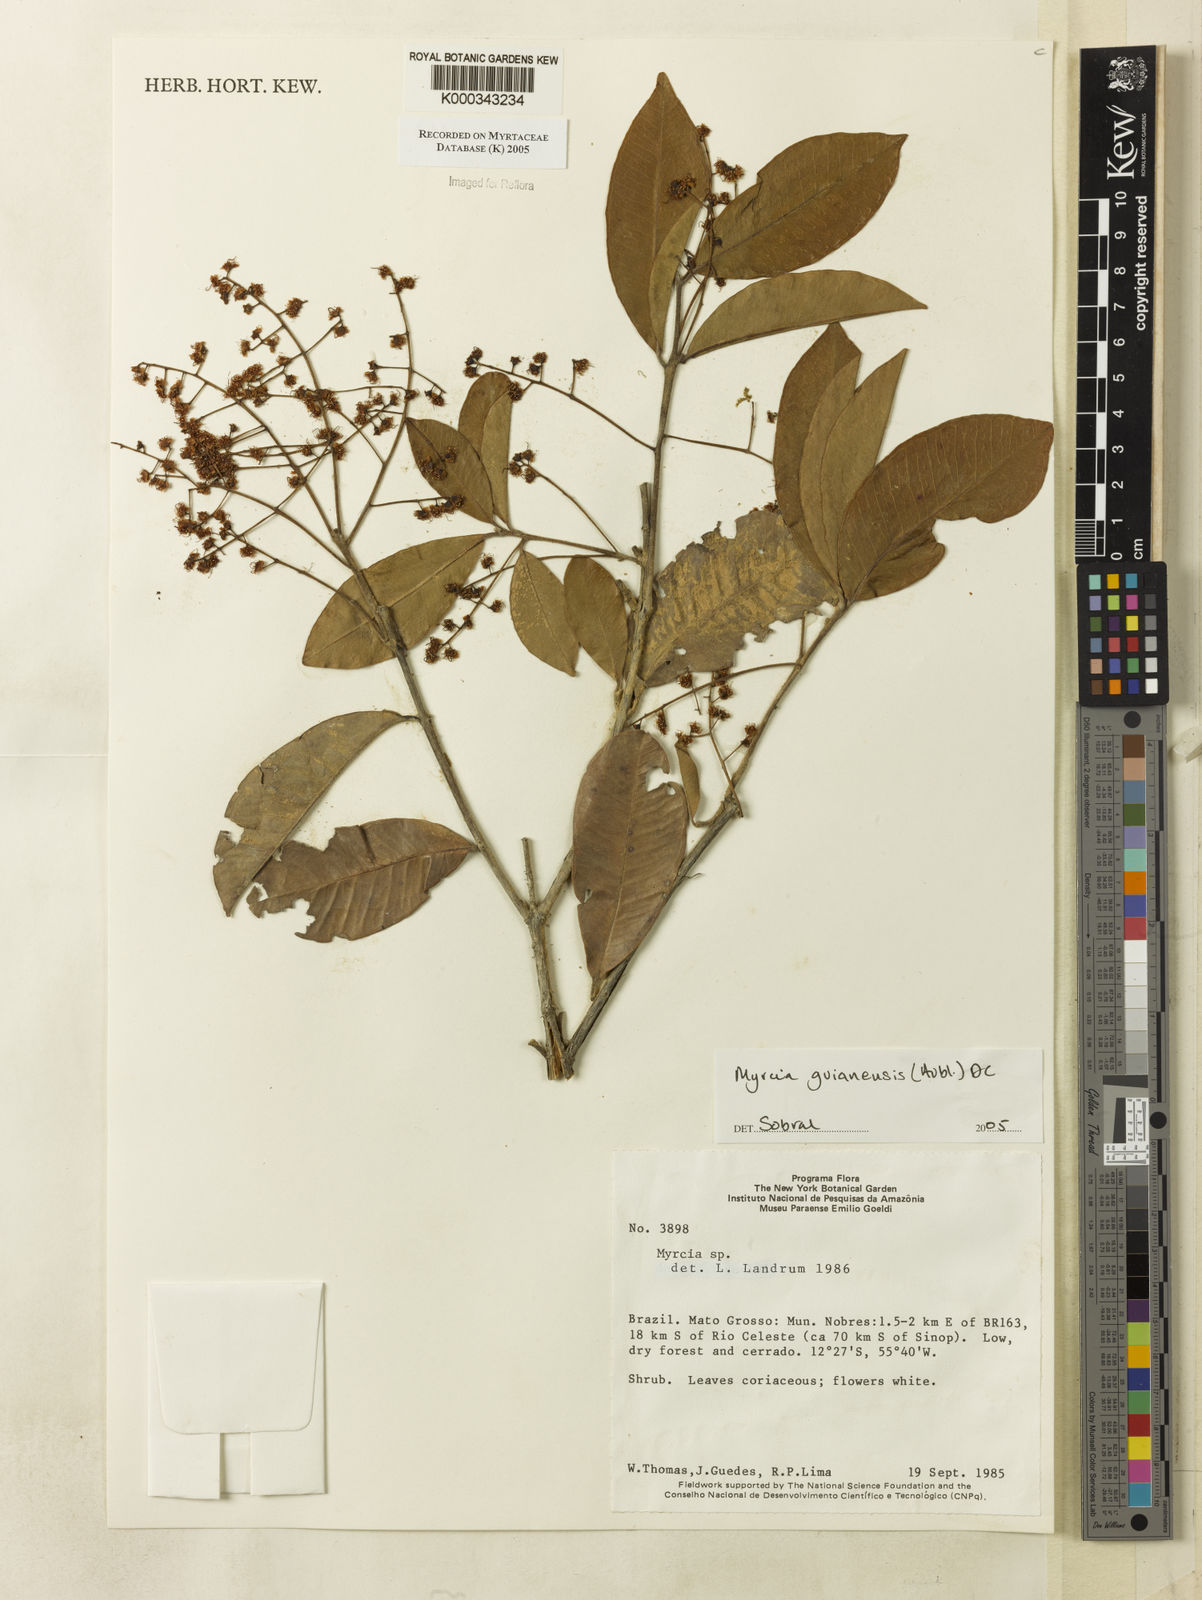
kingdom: Plantae
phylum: Tracheophyta
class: Magnoliopsida
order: Myrtales
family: Myrtaceae
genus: Myrcia
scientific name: Myrcia guianensis
